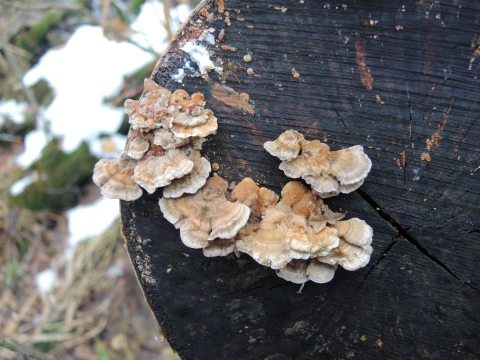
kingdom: Fungi
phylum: Basidiomycota
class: Agaricomycetes
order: Polyporales
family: Polyporaceae
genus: Trametes
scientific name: Trametes ochracea
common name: bæltet læderporesvamp
